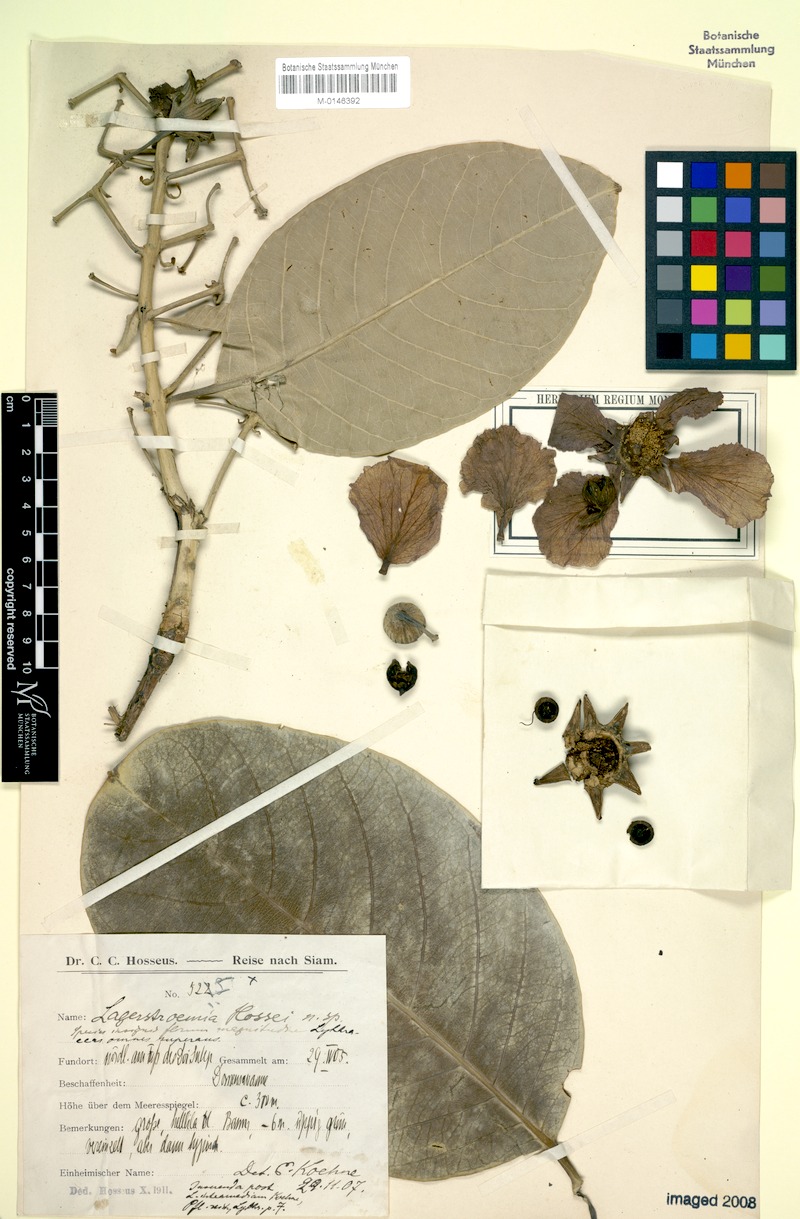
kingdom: Plantae
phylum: Tracheophyta
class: Magnoliopsida
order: Myrtales
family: Lythraceae
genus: Lagerstroemia
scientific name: Lagerstroemia macrocarpa
